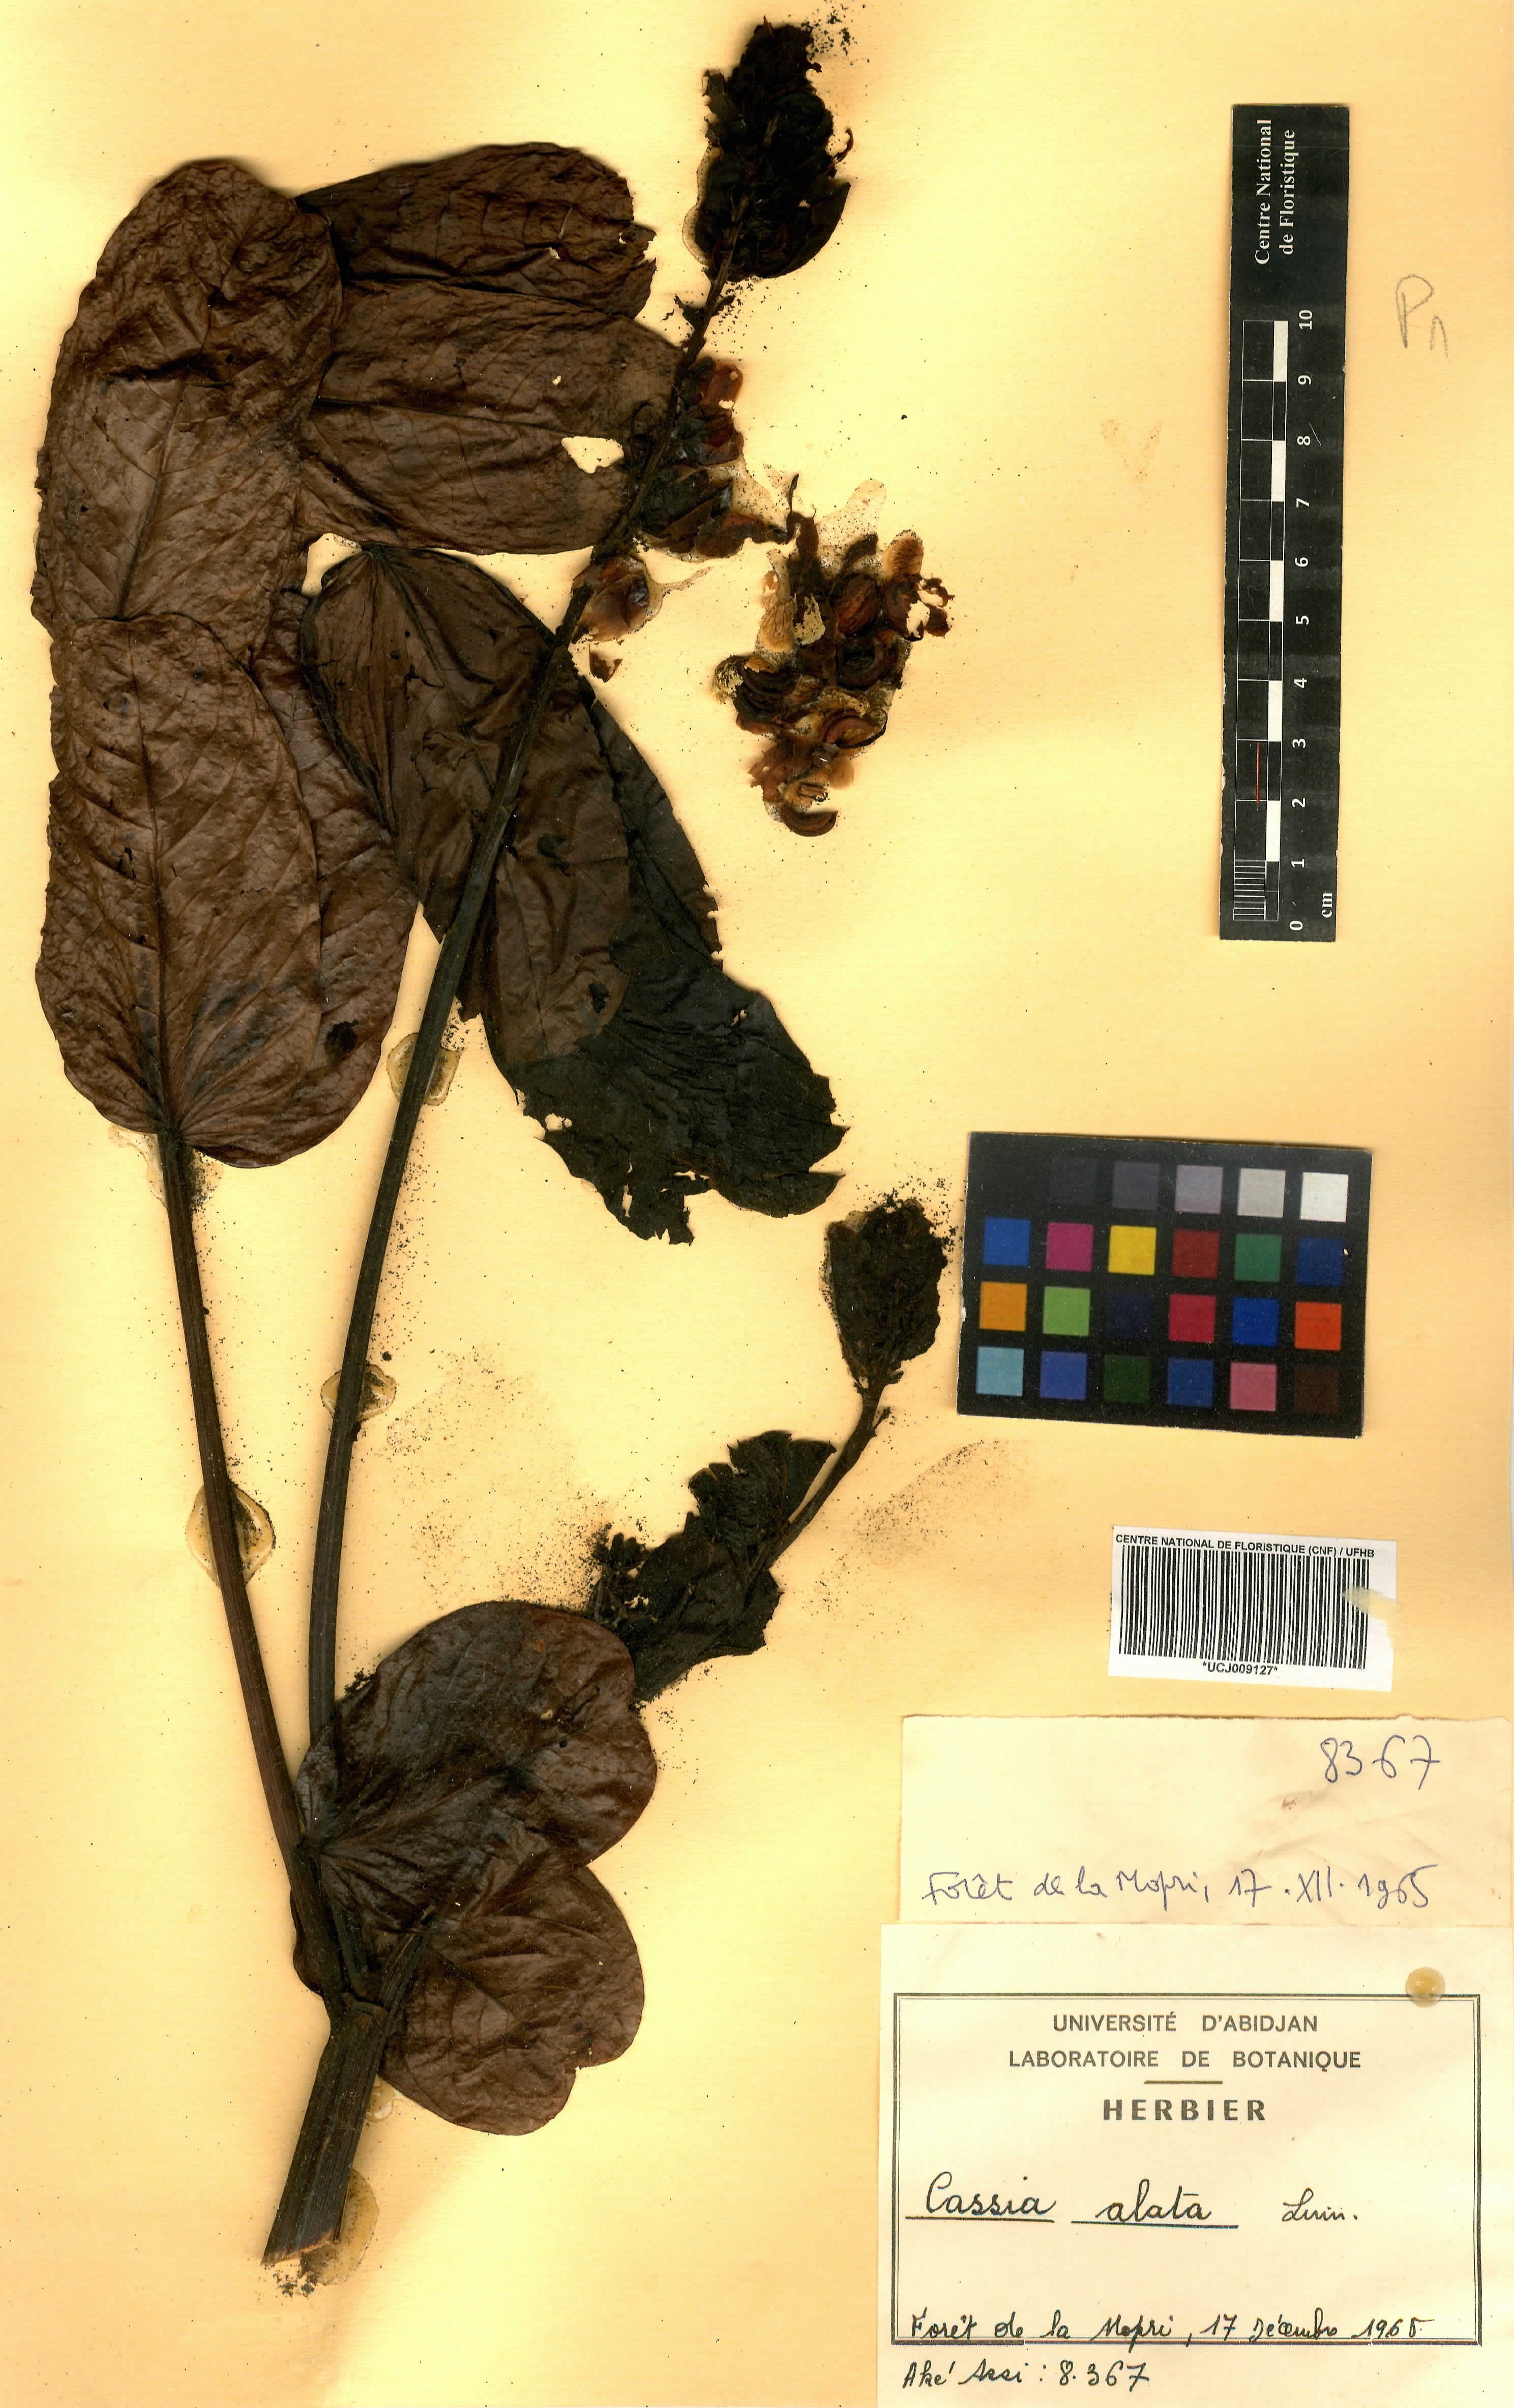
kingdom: Plantae
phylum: Tracheophyta
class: Magnoliopsida
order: Fabales
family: Fabaceae
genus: Senna
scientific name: Senna alata
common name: Emperor's candlesticks
